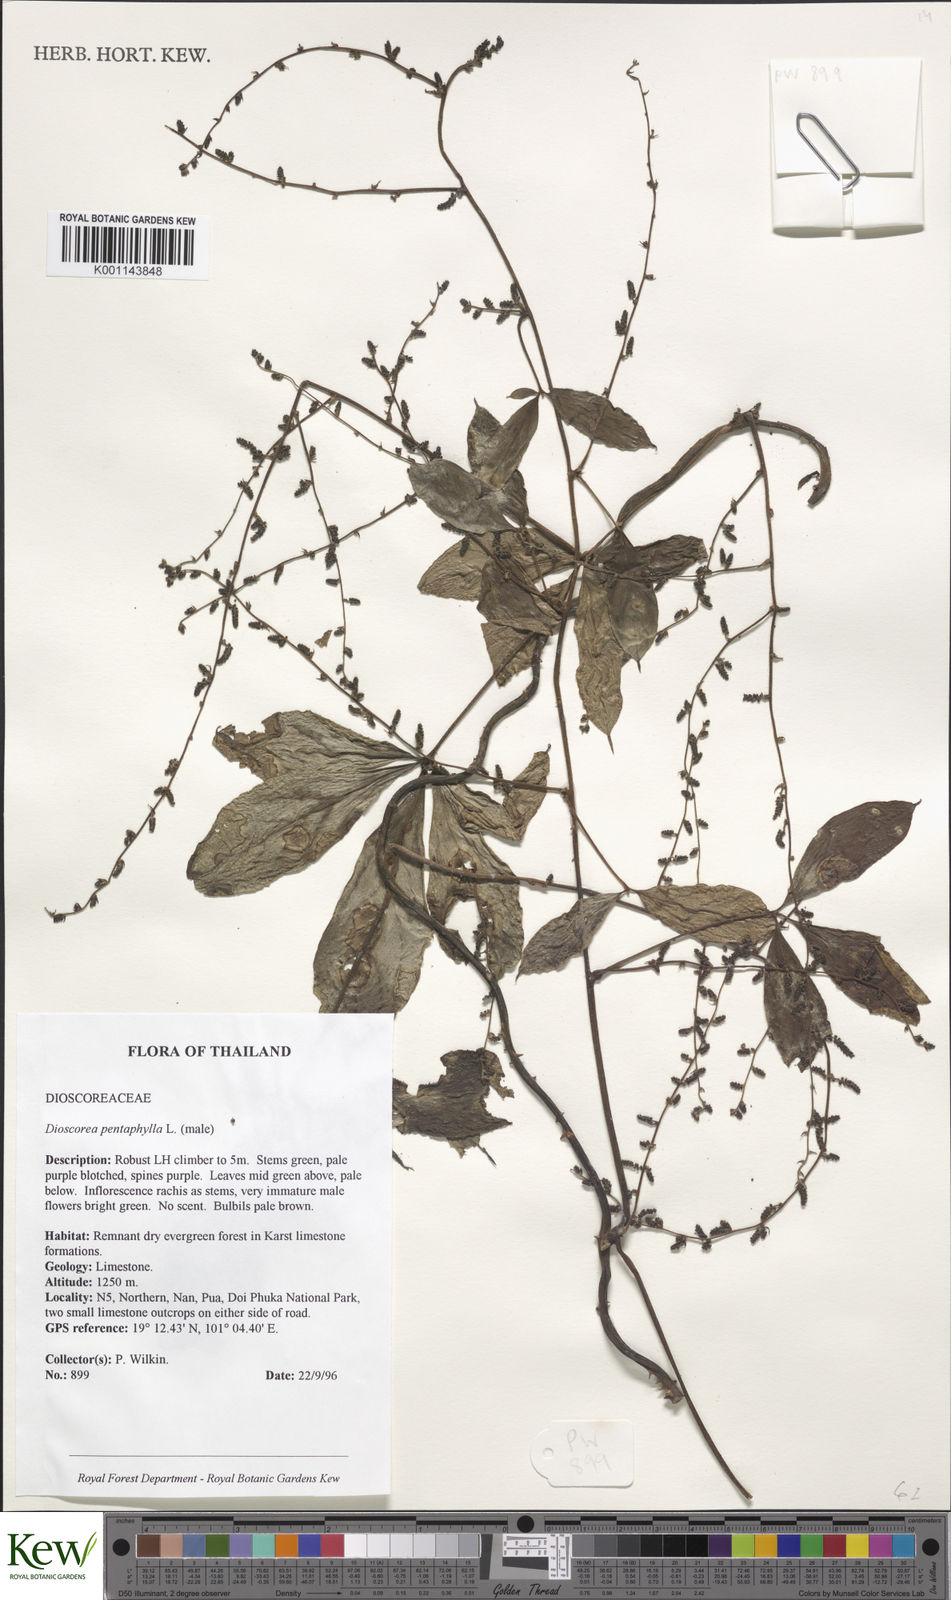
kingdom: Plantae
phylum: Tracheophyta
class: Liliopsida
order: Dioscoreales
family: Dioscoreaceae
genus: Dioscorea
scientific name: Dioscorea pentaphylla
